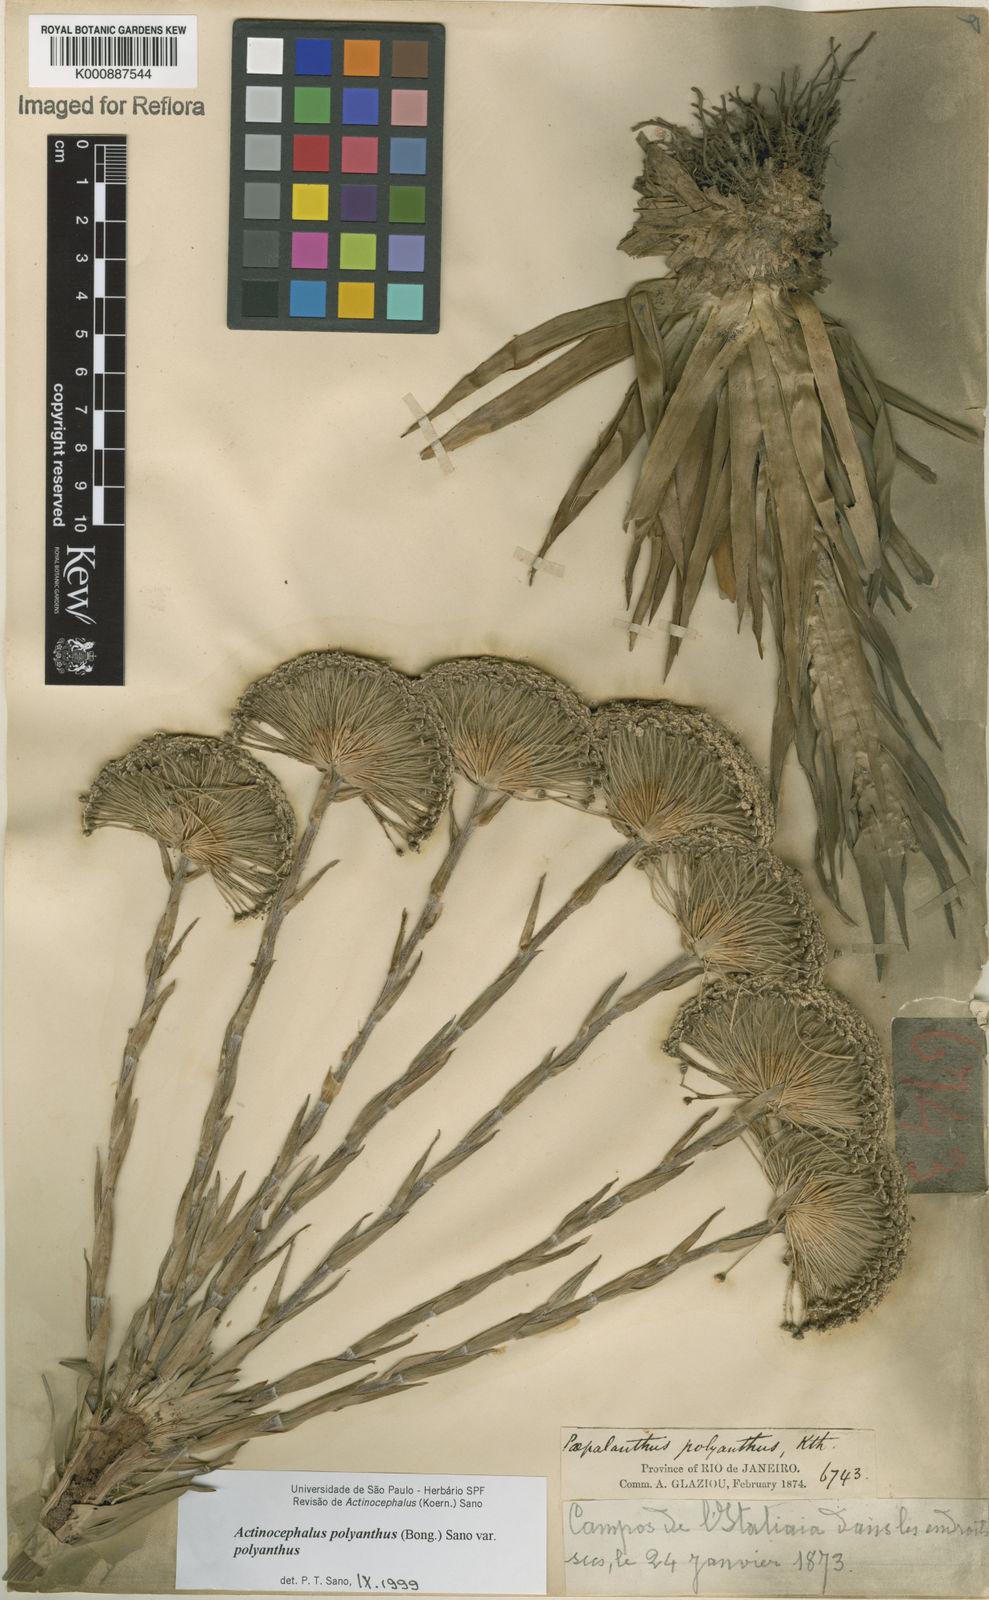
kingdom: Plantae
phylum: Tracheophyta
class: Liliopsida
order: Poales
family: Eriocaulaceae
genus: Paepalanthus
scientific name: Paepalanthus polyanthus
